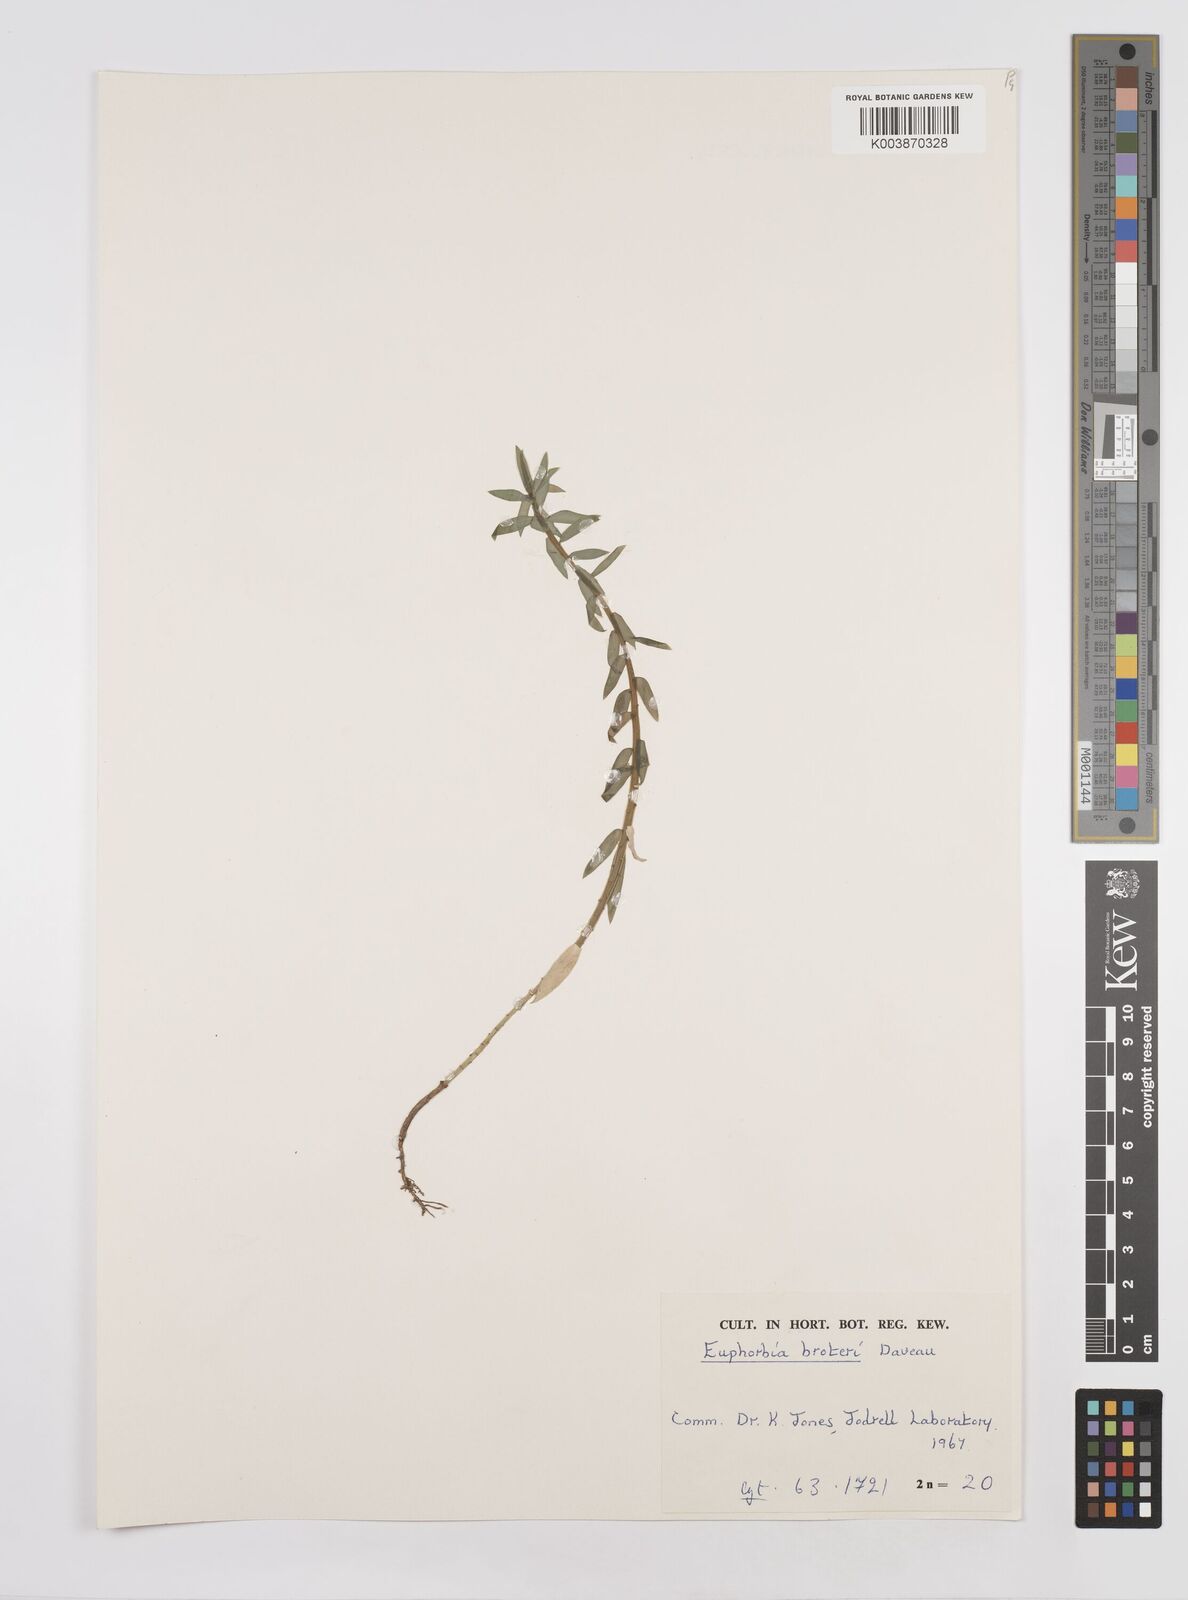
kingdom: Plantae
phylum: Tracheophyta
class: Magnoliopsida
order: Malpighiales
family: Euphorbiaceae
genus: Euphorbia
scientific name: Euphorbia oxyphylla
